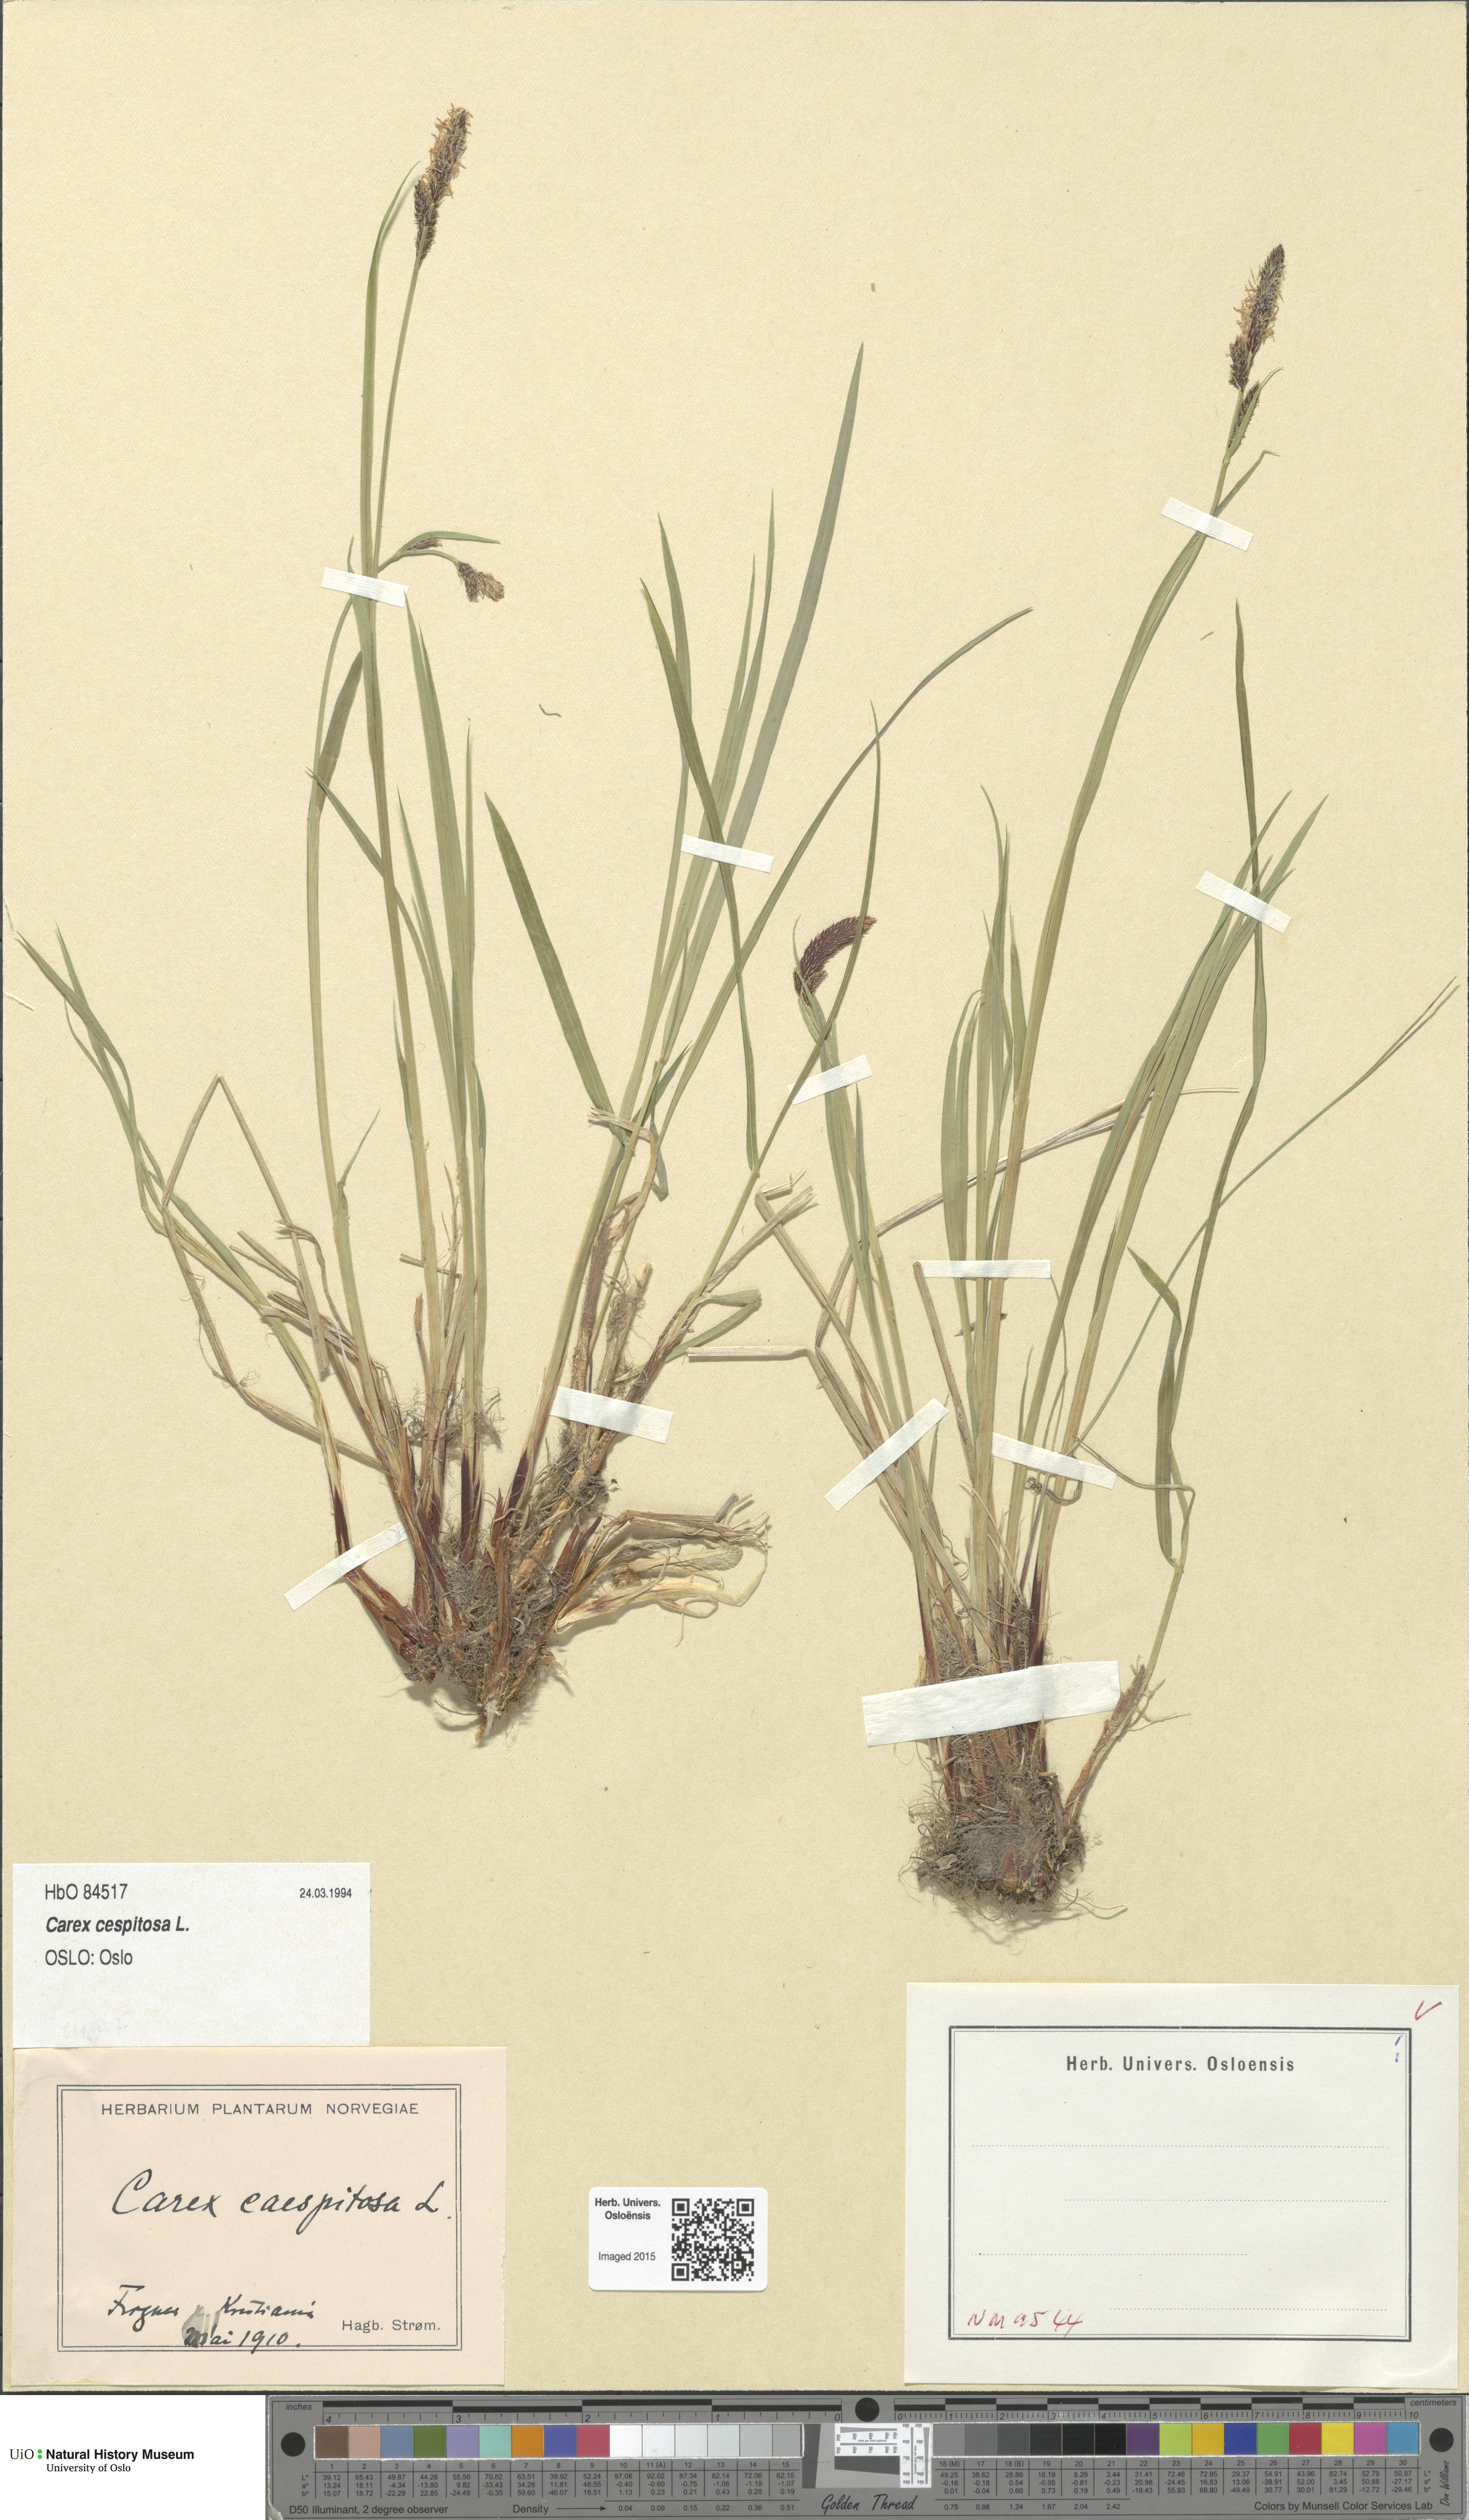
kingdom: Plantae
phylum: Tracheophyta
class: Liliopsida
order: Poales
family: Cyperaceae
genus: Carex
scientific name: Carex cespitosa
